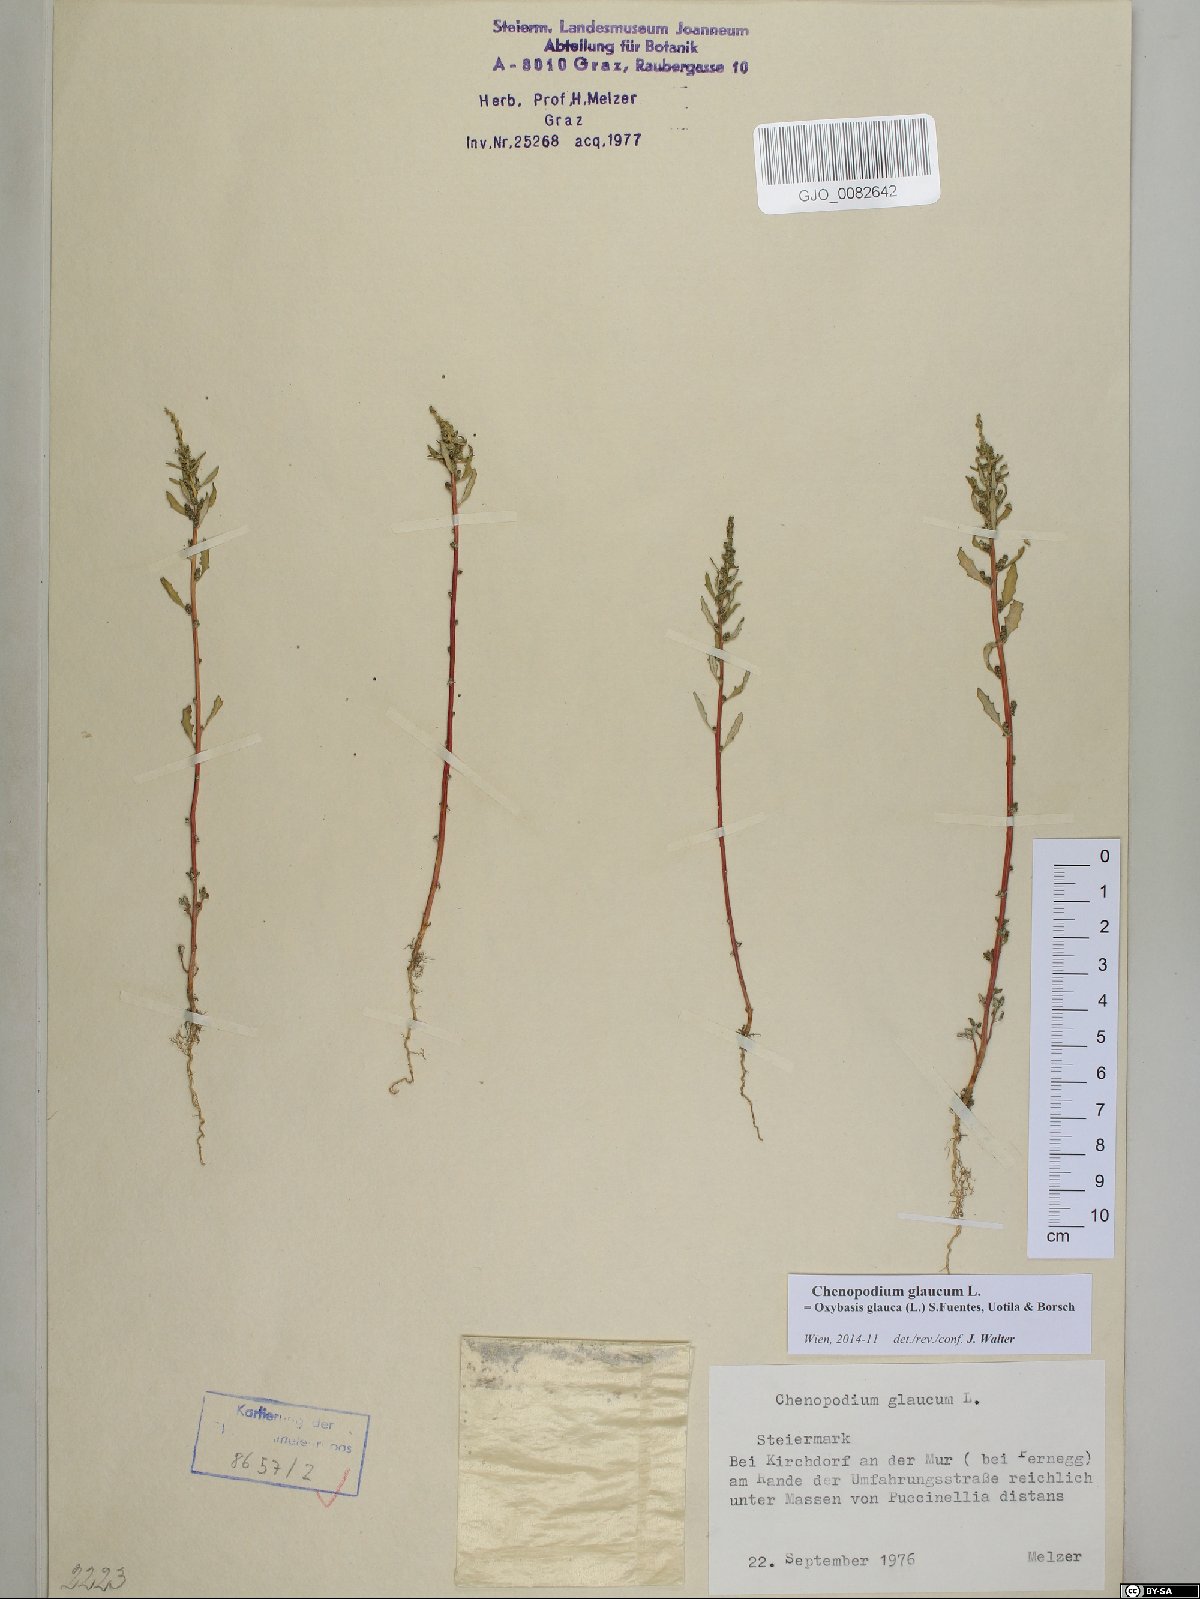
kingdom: Plantae
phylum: Tracheophyta
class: Magnoliopsida
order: Caryophyllales
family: Amaranthaceae
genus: Oxybasis
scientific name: Oxybasis glauca
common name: Glaucous goosefoot
